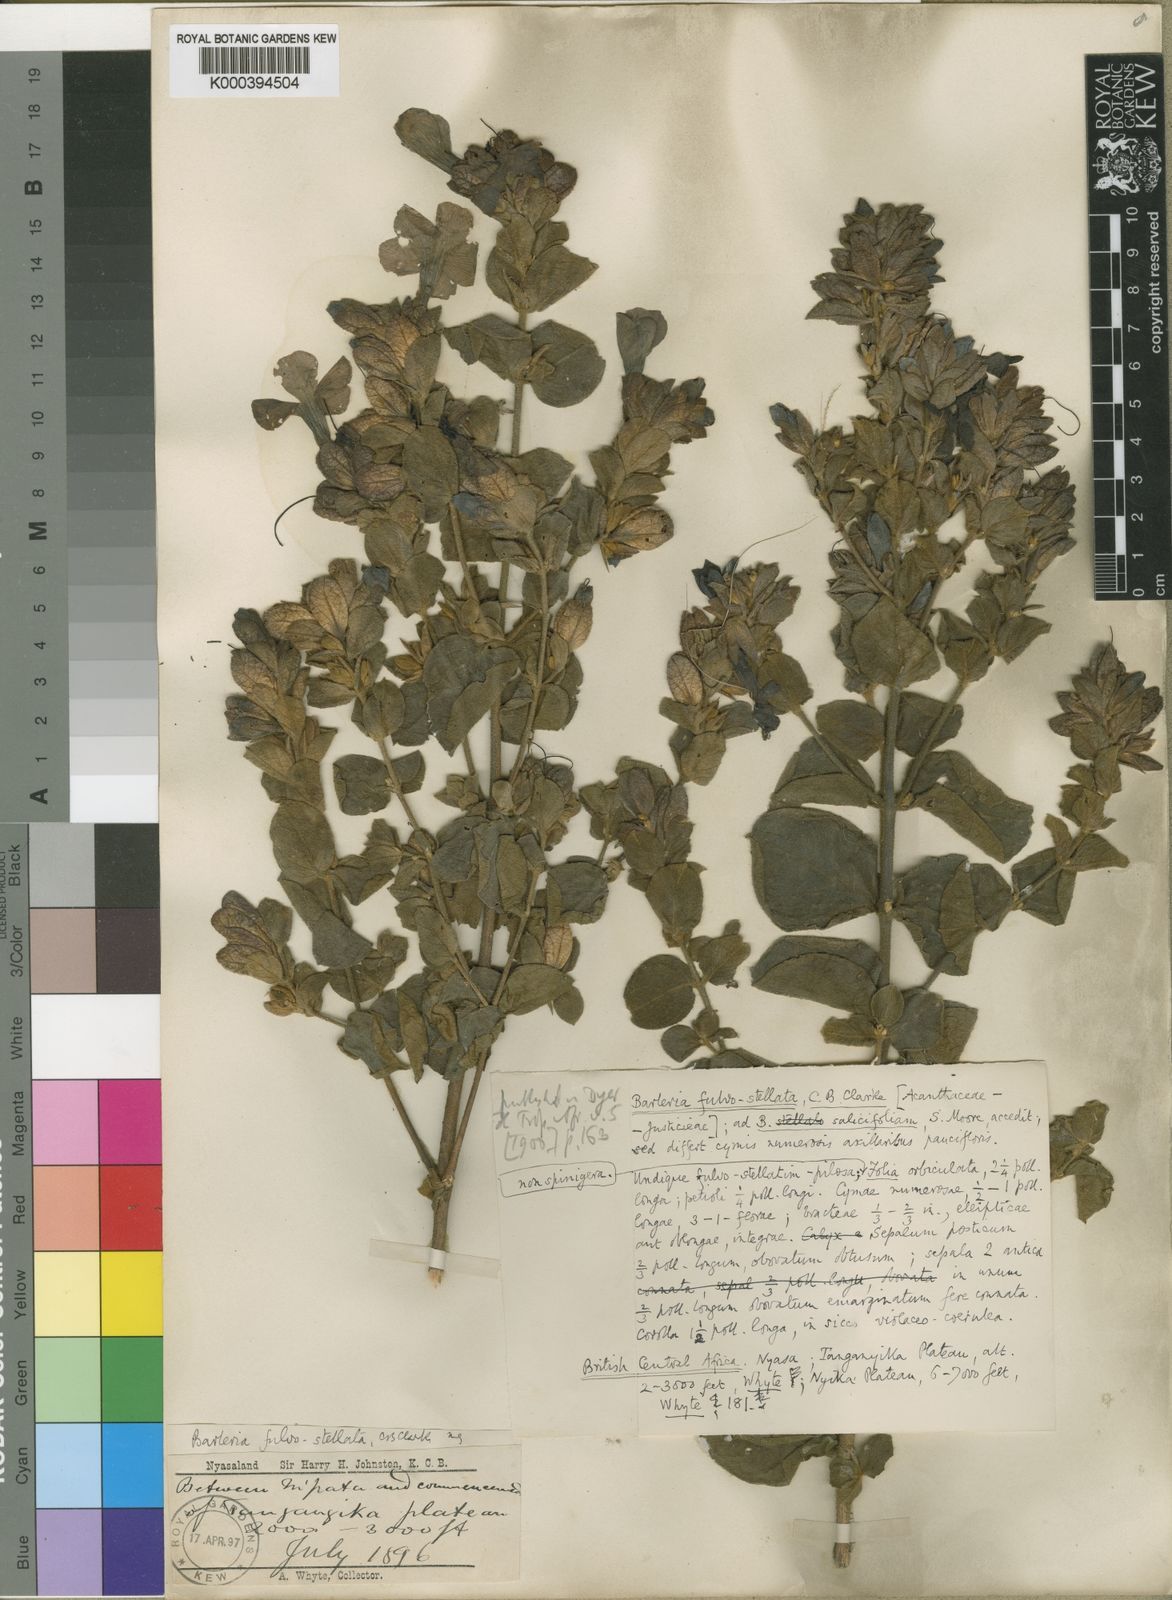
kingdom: Plantae
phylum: Tracheophyta
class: Magnoliopsida
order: Lamiales
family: Acanthaceae
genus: Barleria
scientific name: Barleria fulvostellata
